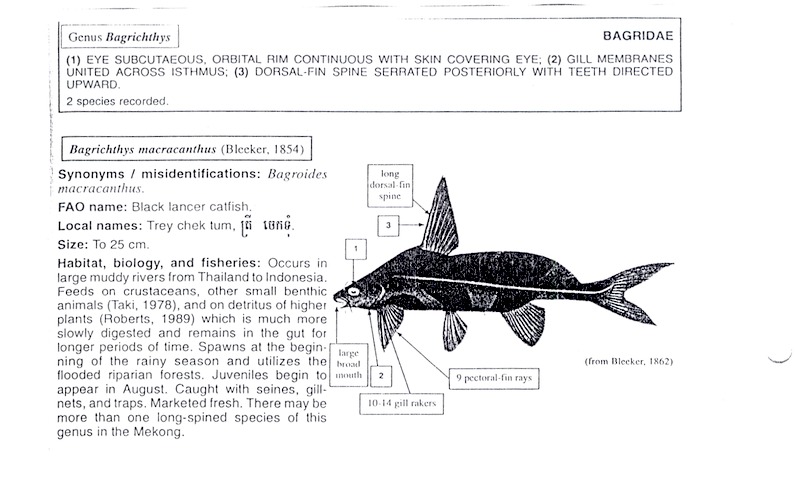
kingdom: Animalia
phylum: Chordata
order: Siluriformes
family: Bagridae
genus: Bagrichthys
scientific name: Bagrichthys macracanthus
